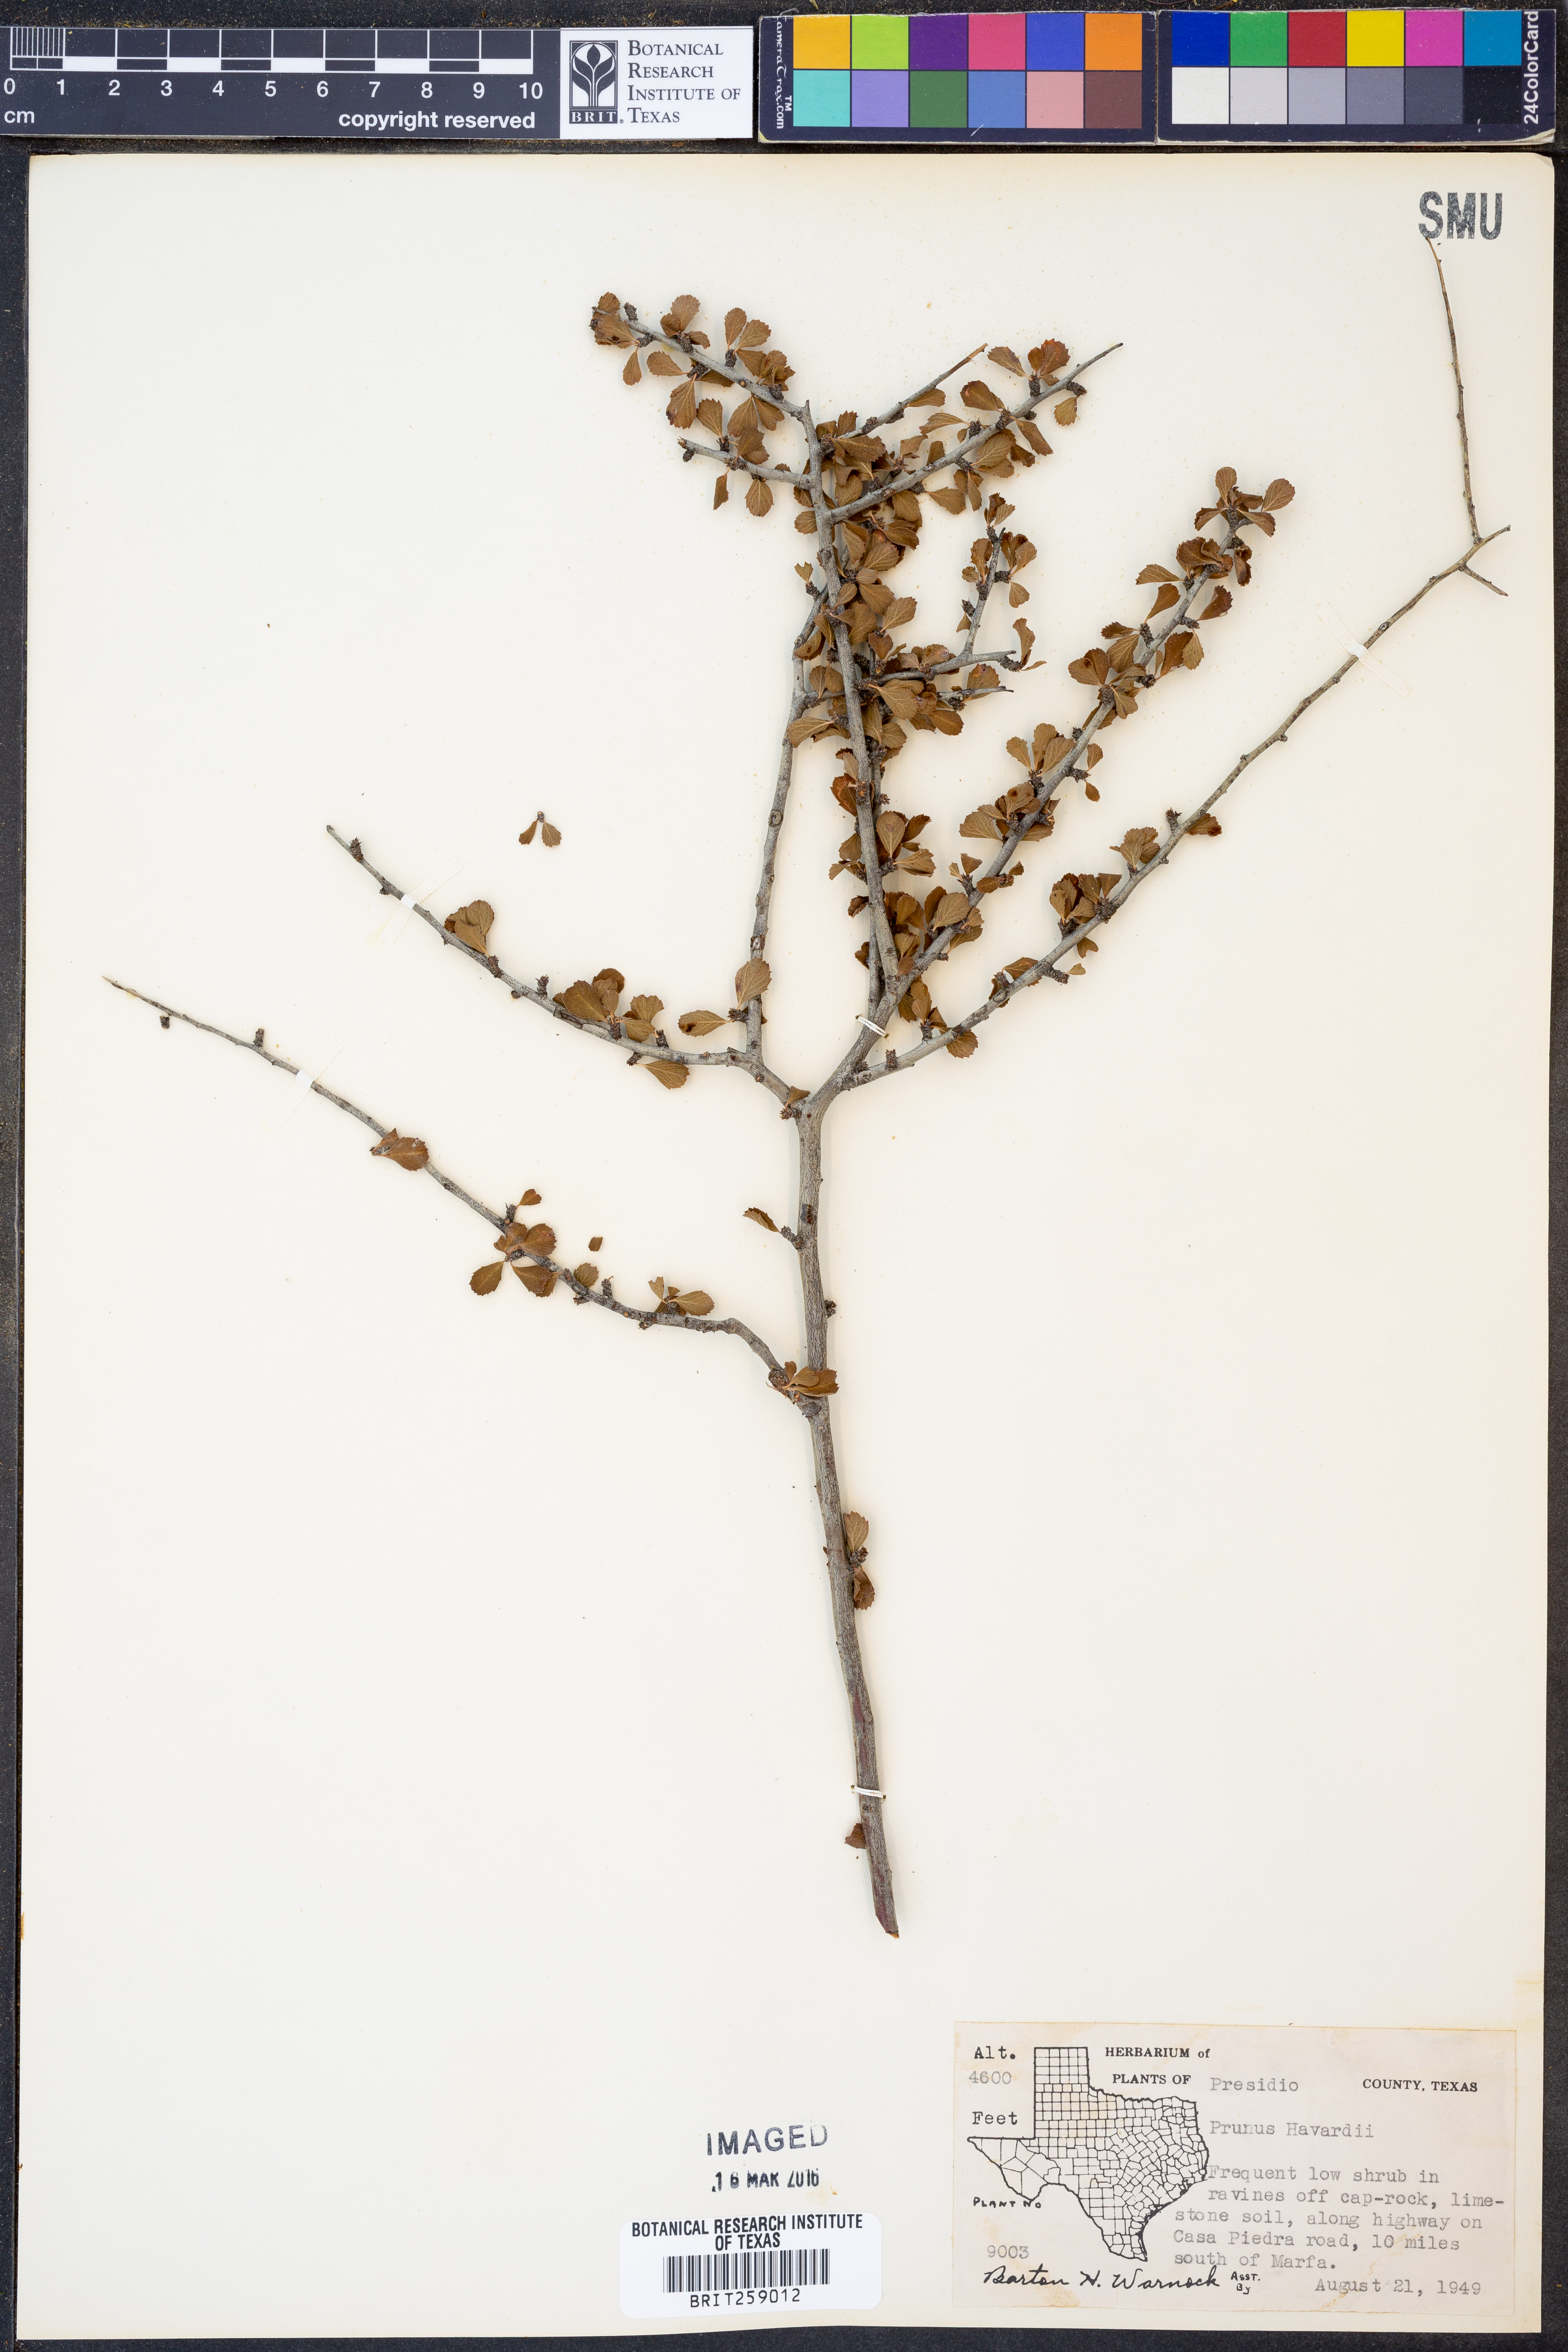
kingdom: Plantae
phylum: Tracheophyta
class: Magnoliopsida
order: Rosales
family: Rosaceae
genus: Prunus
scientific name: Prunus havardii
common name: Havard plum
